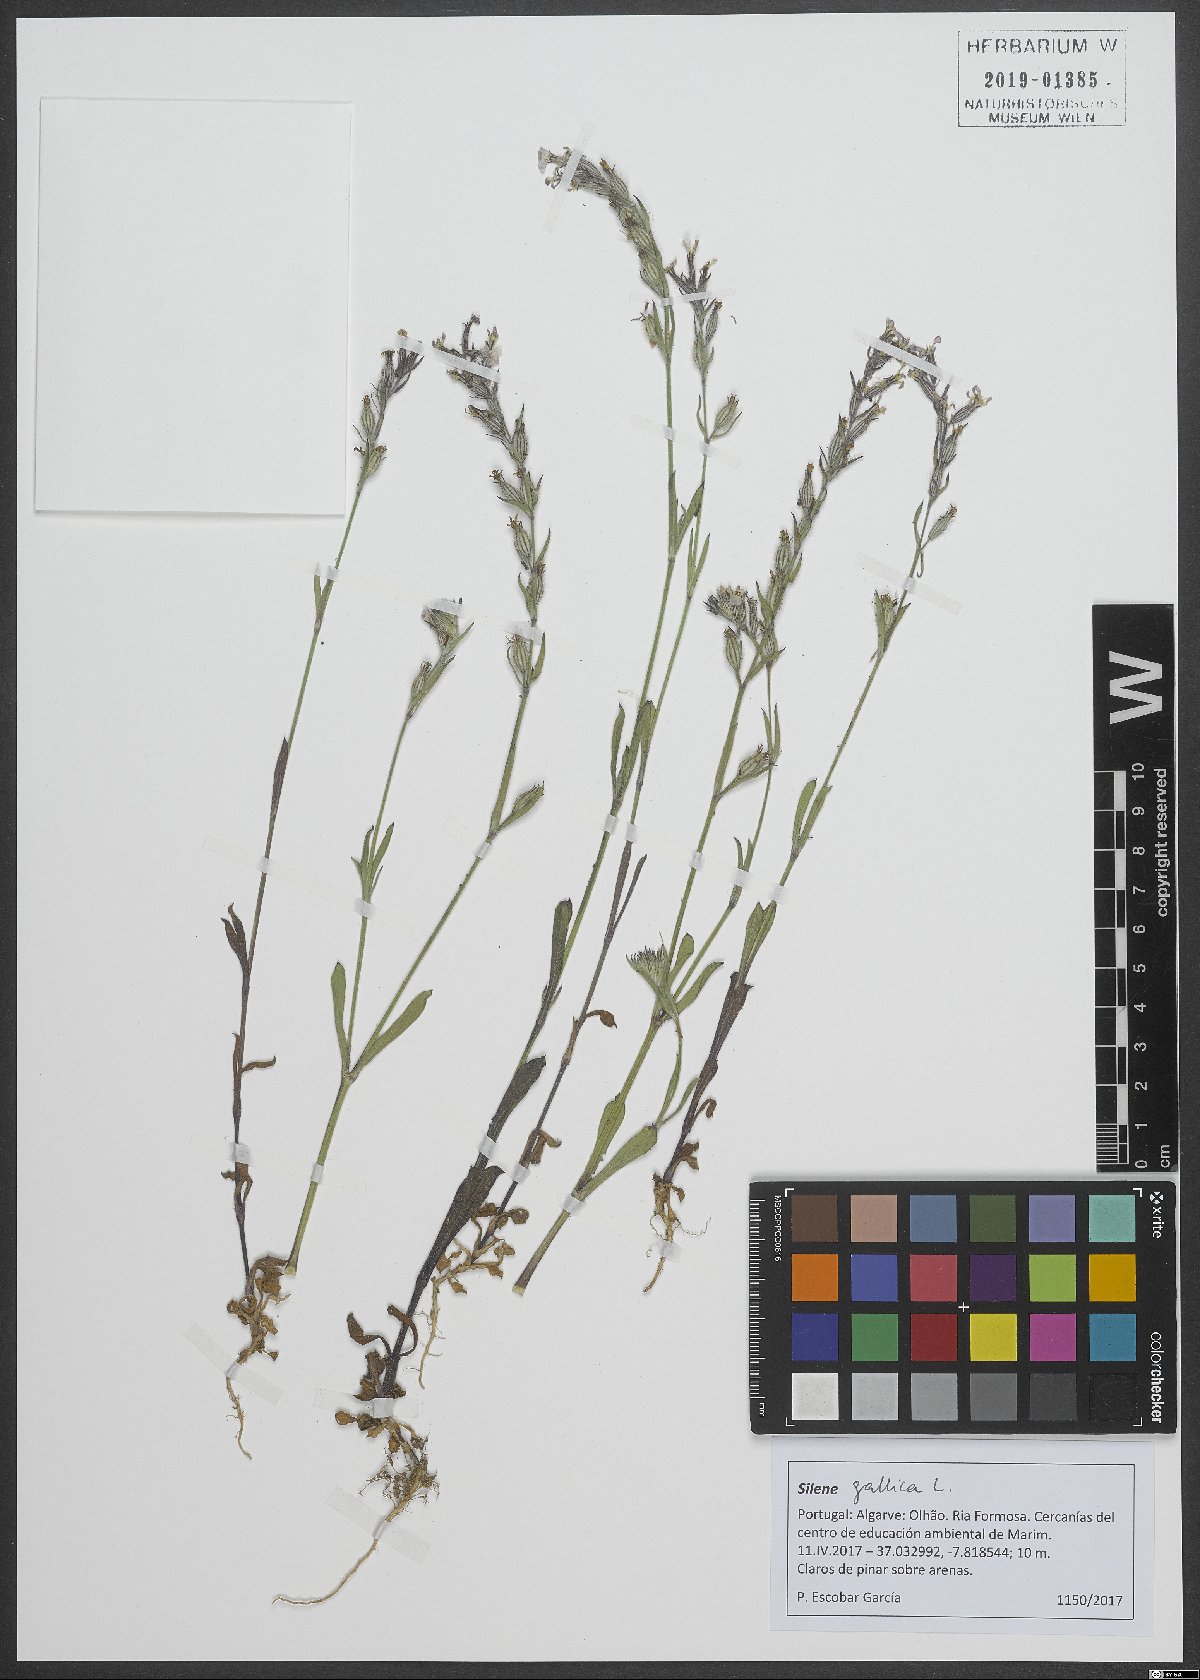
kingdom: Plantae
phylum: Tracheophyta
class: Magnoliopsida
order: Caryophyllales
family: Caryophyllaceae
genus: Silene
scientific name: Silene gallica
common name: Small-flowered catchfly
